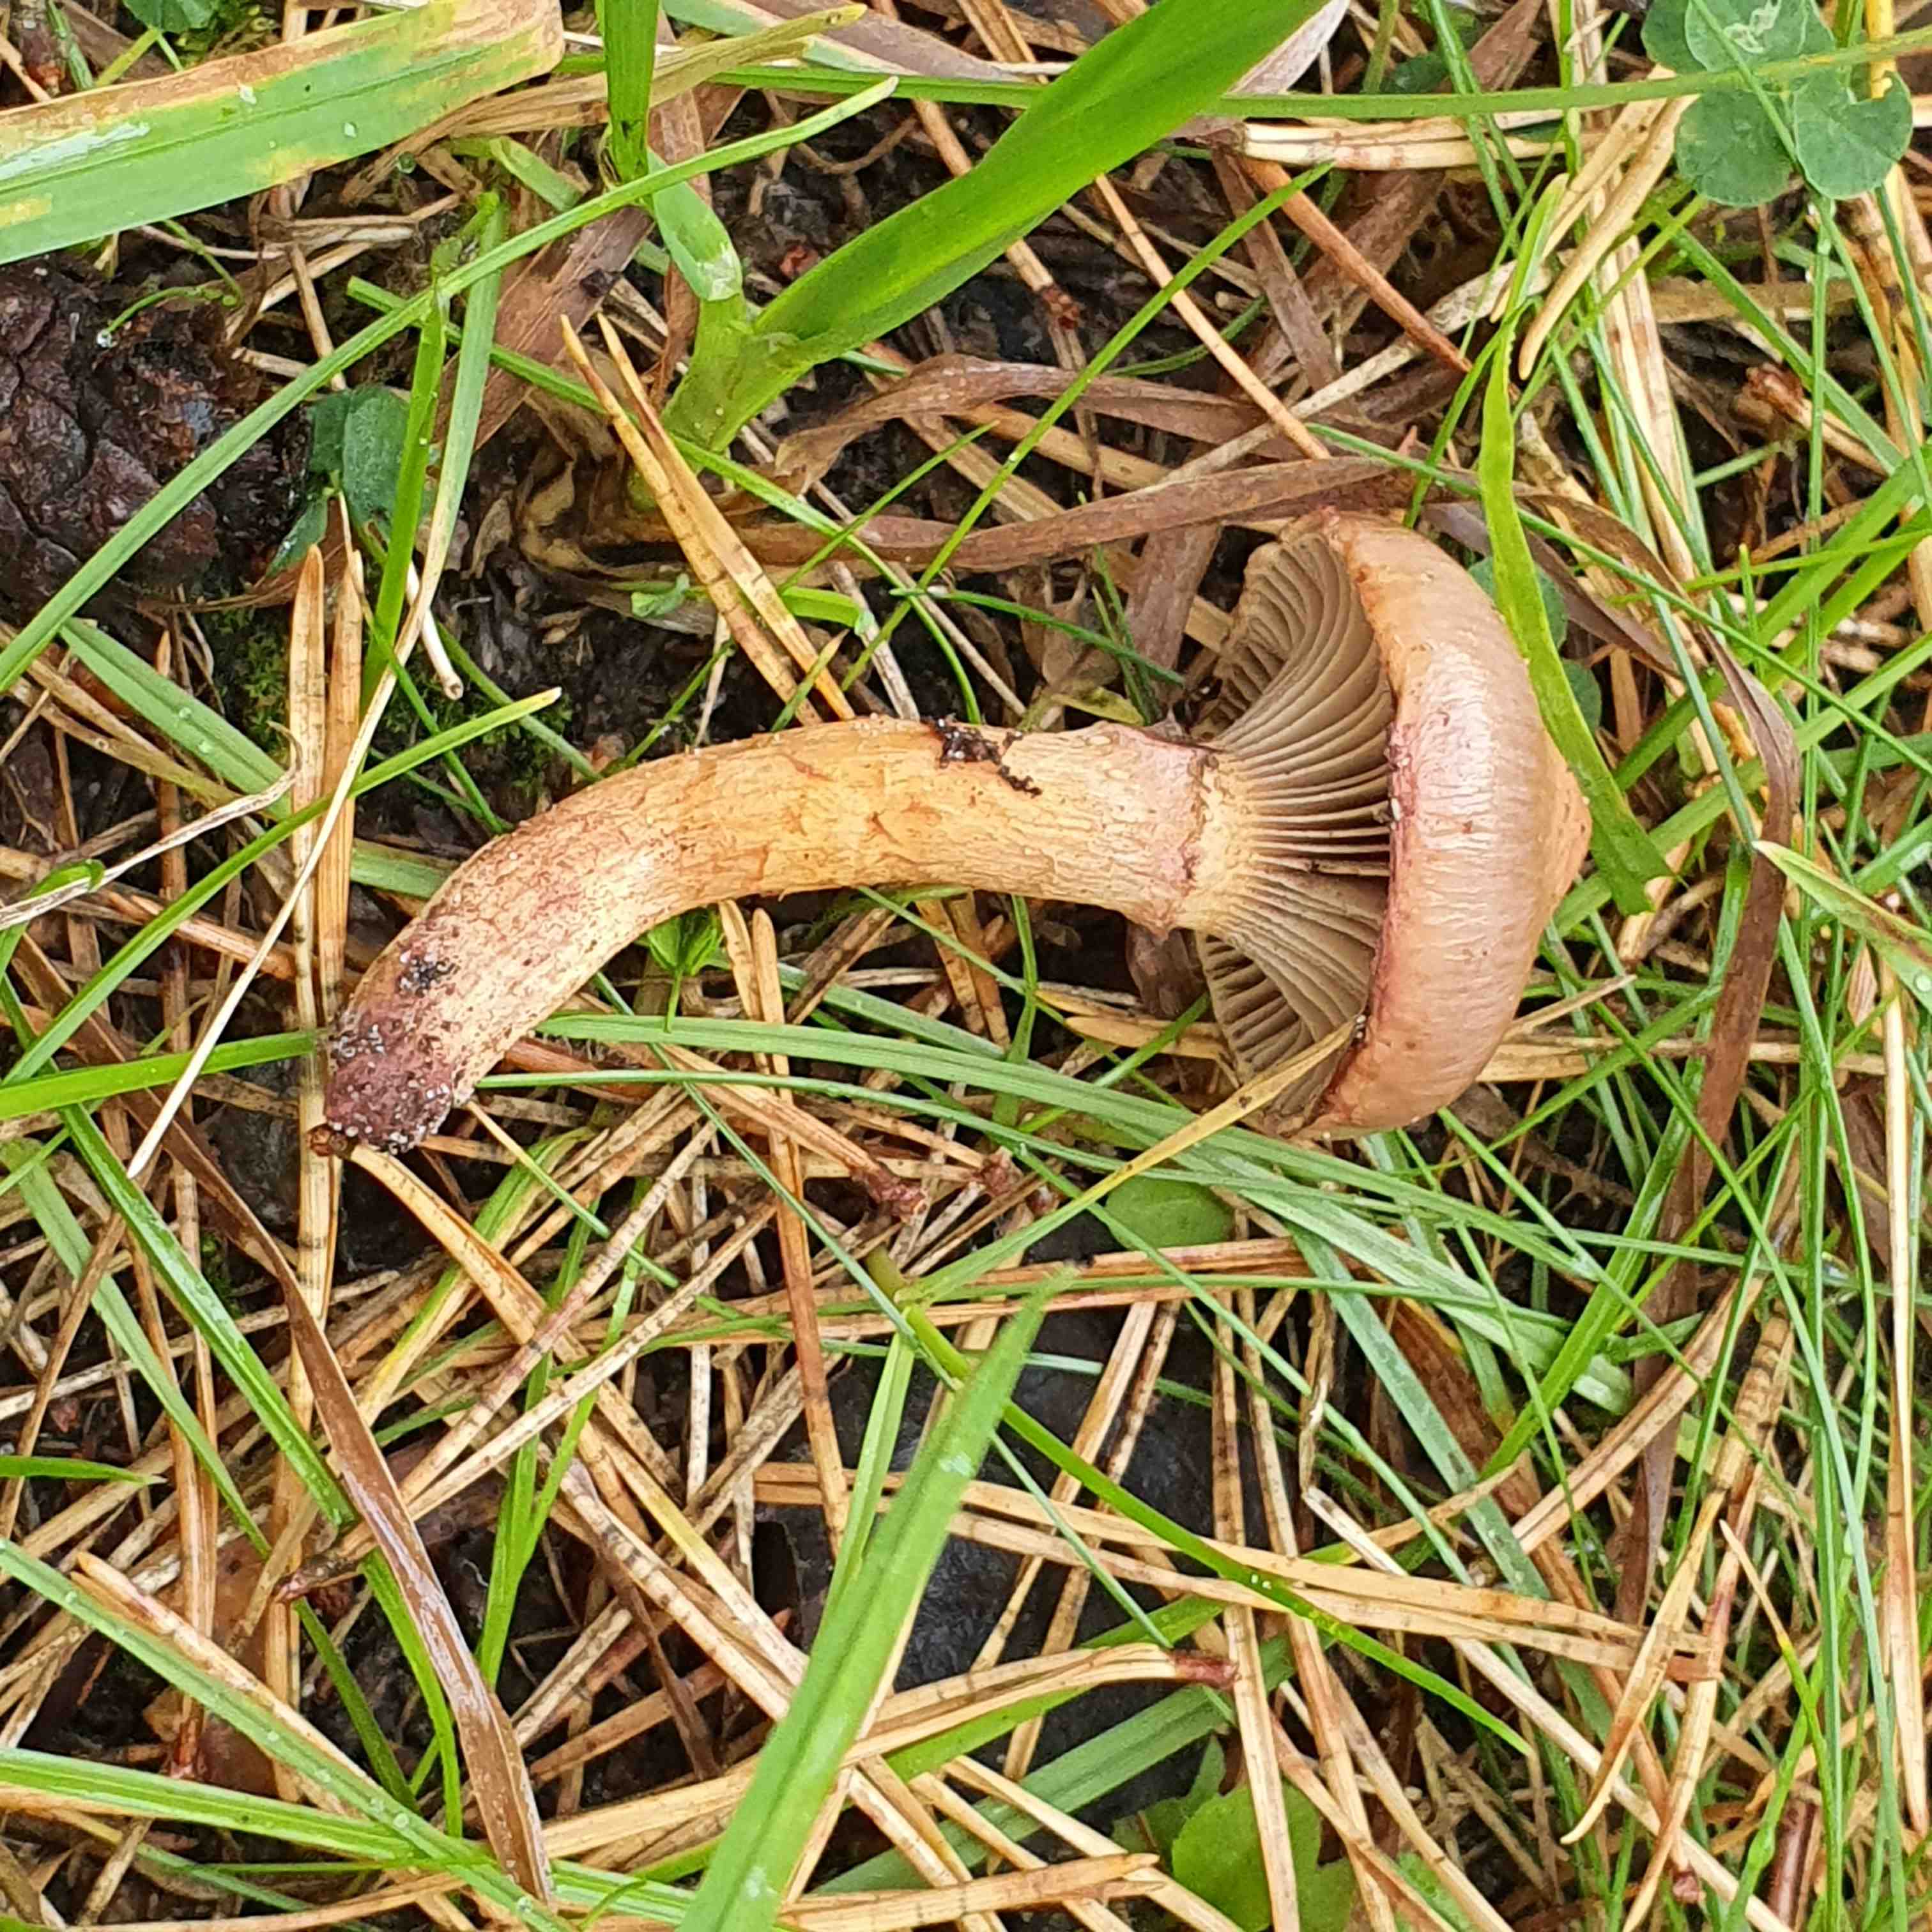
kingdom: Fungi
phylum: Basidiomycota
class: Agaricomycetes
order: Boletales
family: Gomphidiaceae
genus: Chroogomphus
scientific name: Chroogomphus rutilus
